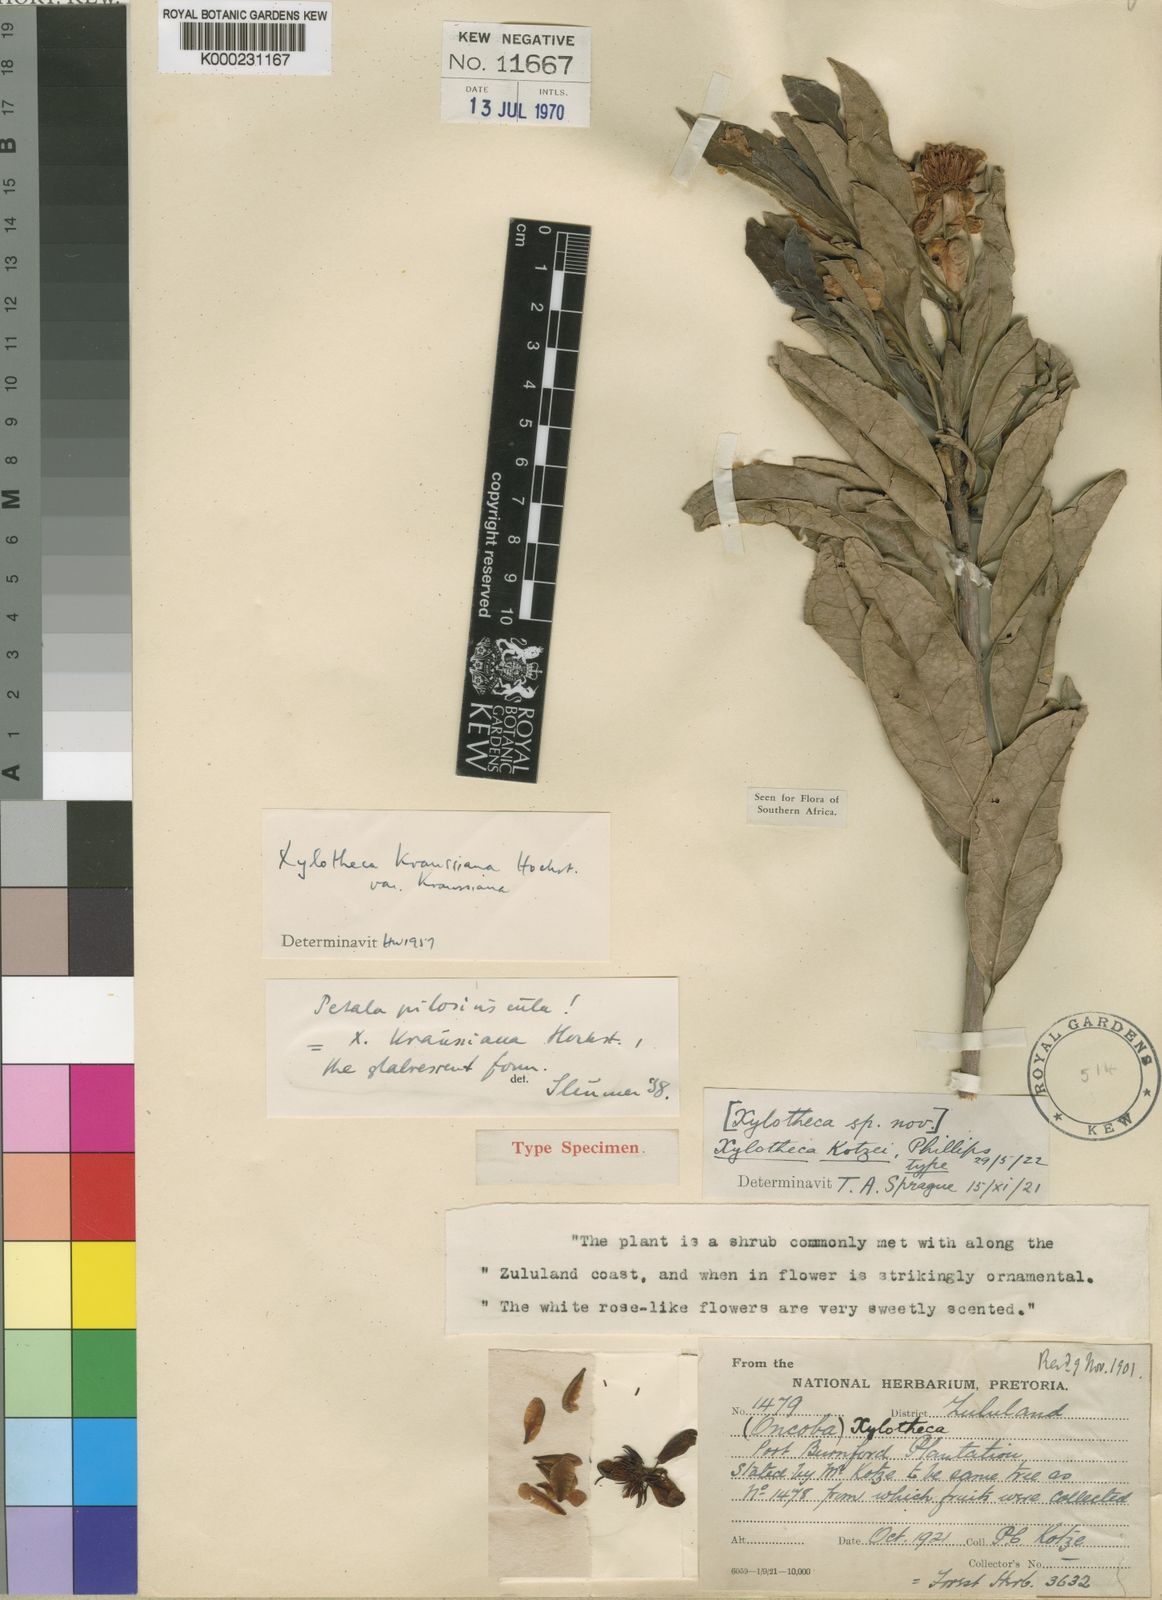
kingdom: Plantae
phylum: Tracheophyta
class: Magnoliopsida
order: Malpighiales
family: Achariaceae
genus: Xylotheca
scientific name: Xylotheca kraussiana
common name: African dog rose
